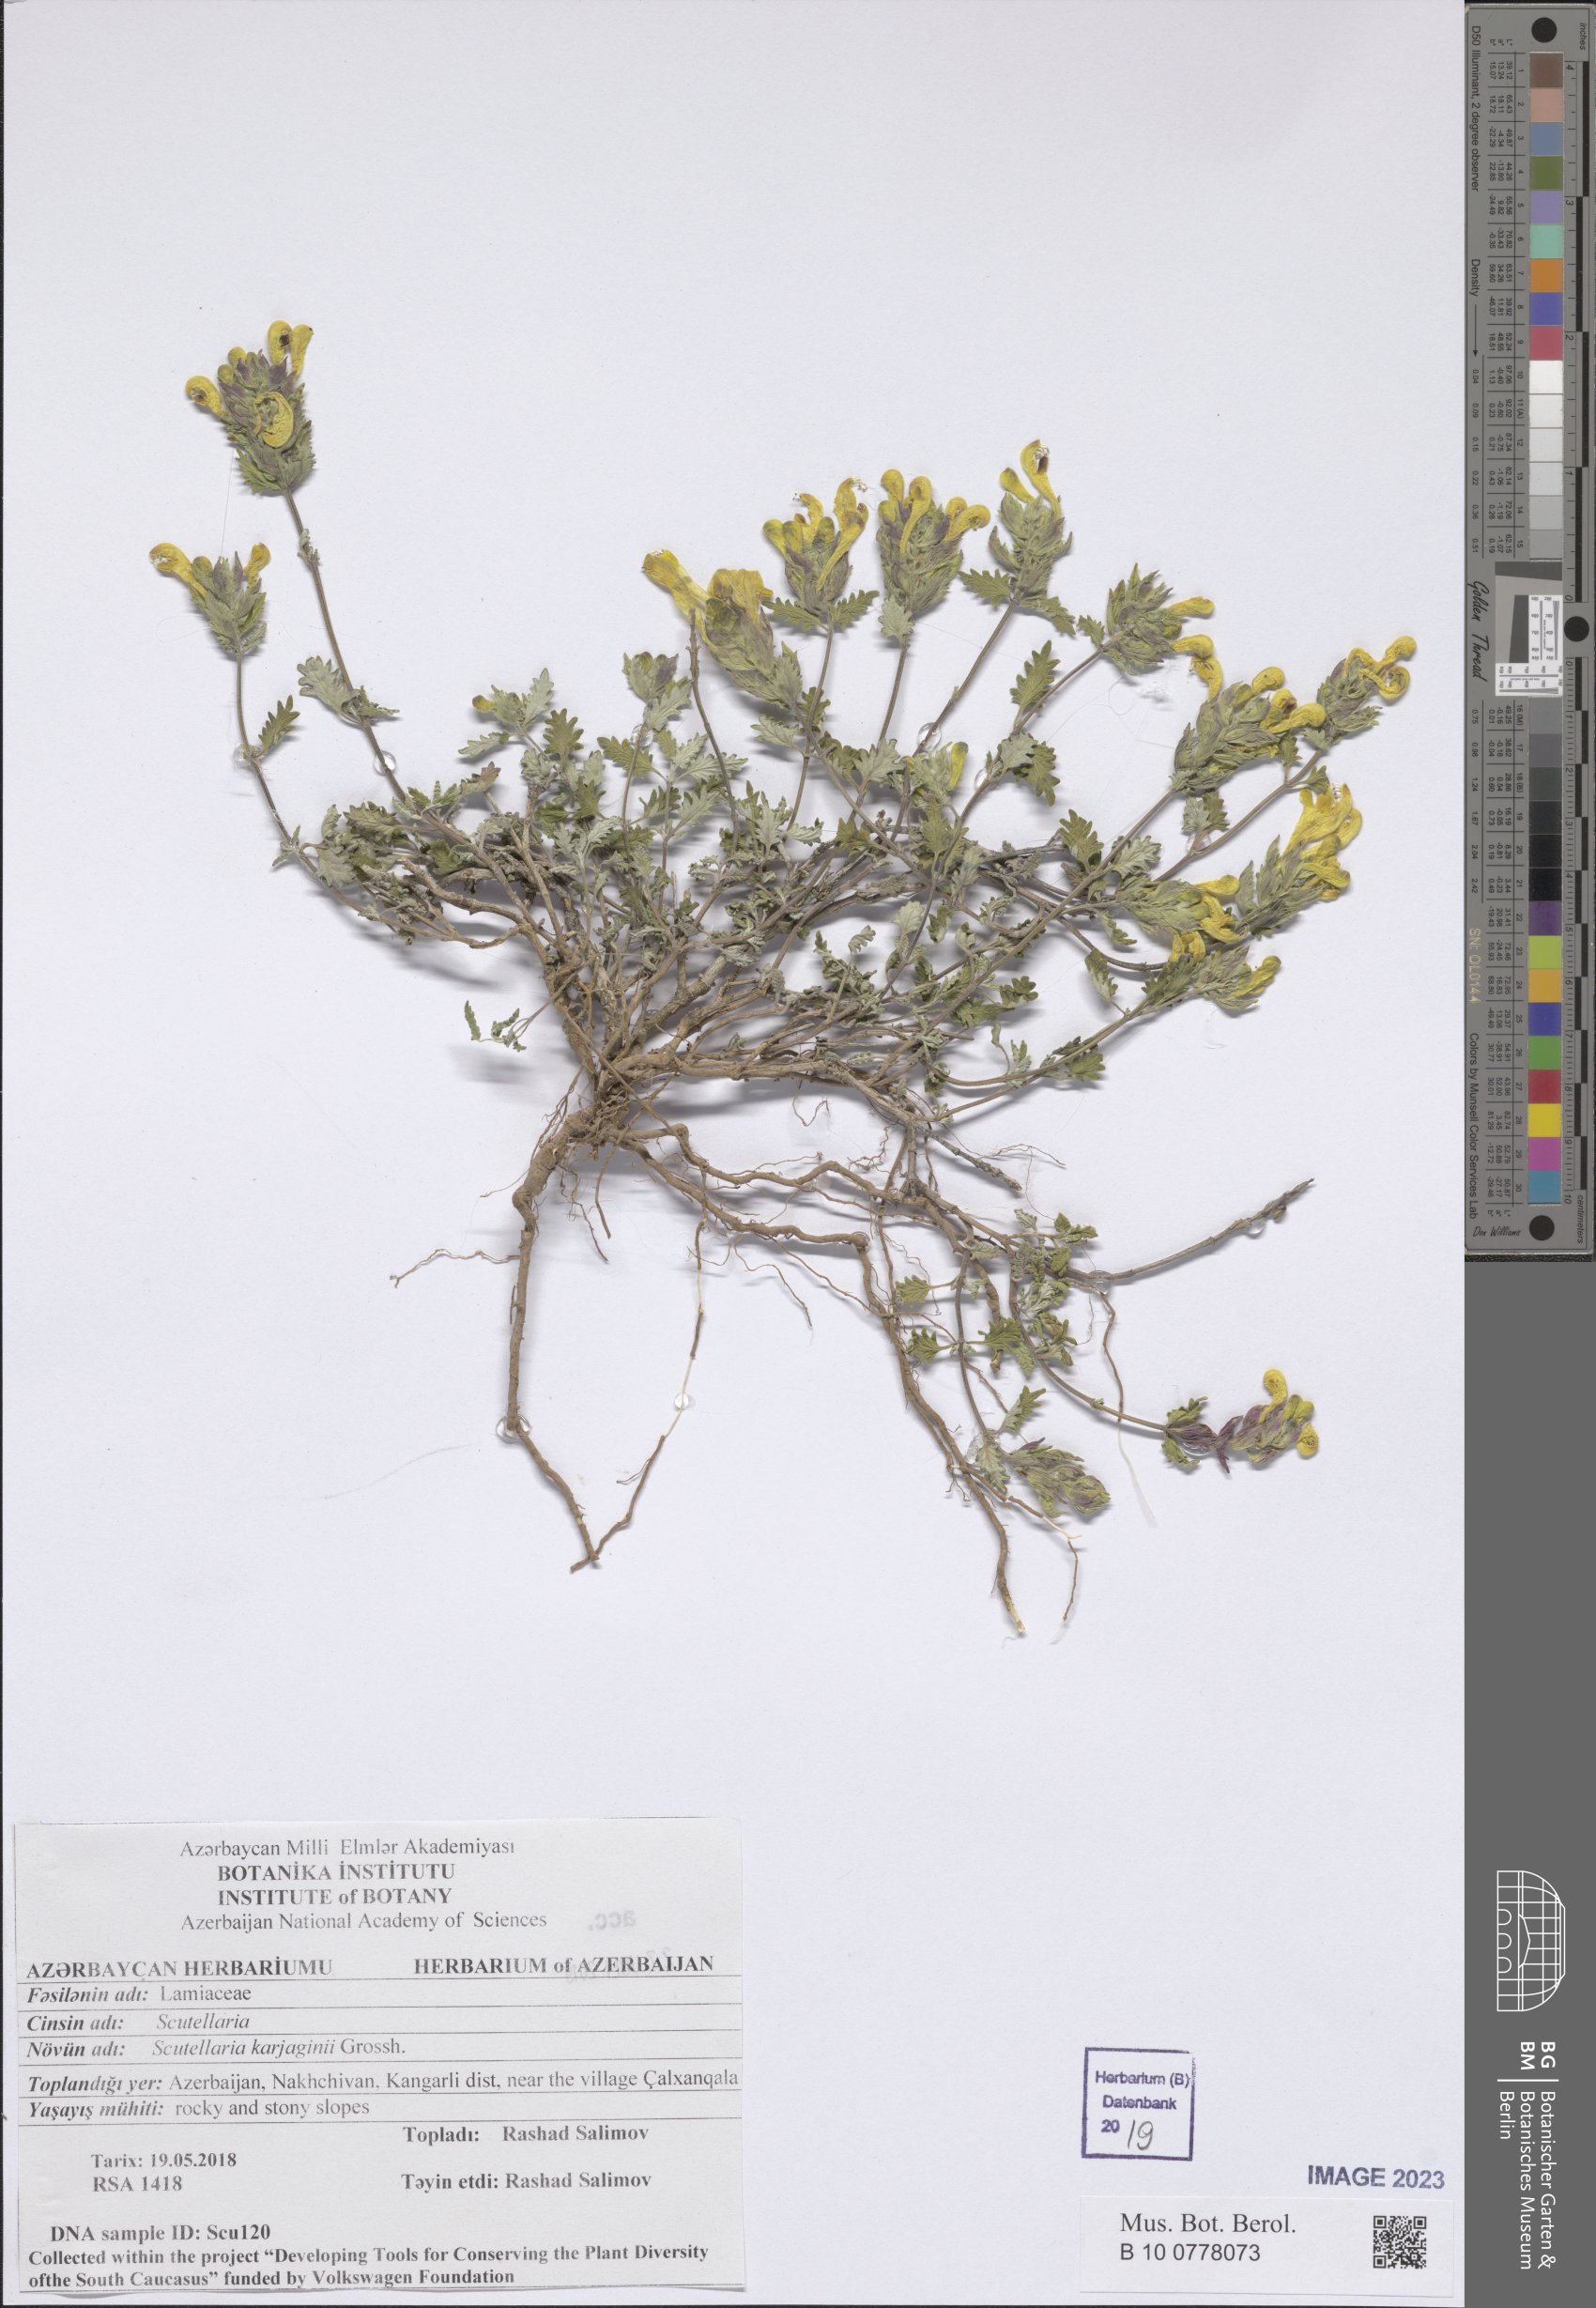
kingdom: Plantae
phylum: Tracheophyta
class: Magnoliopsida
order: Lamiales
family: Lamiaceae
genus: Scutellaria
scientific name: Scutellaria karjaginii
